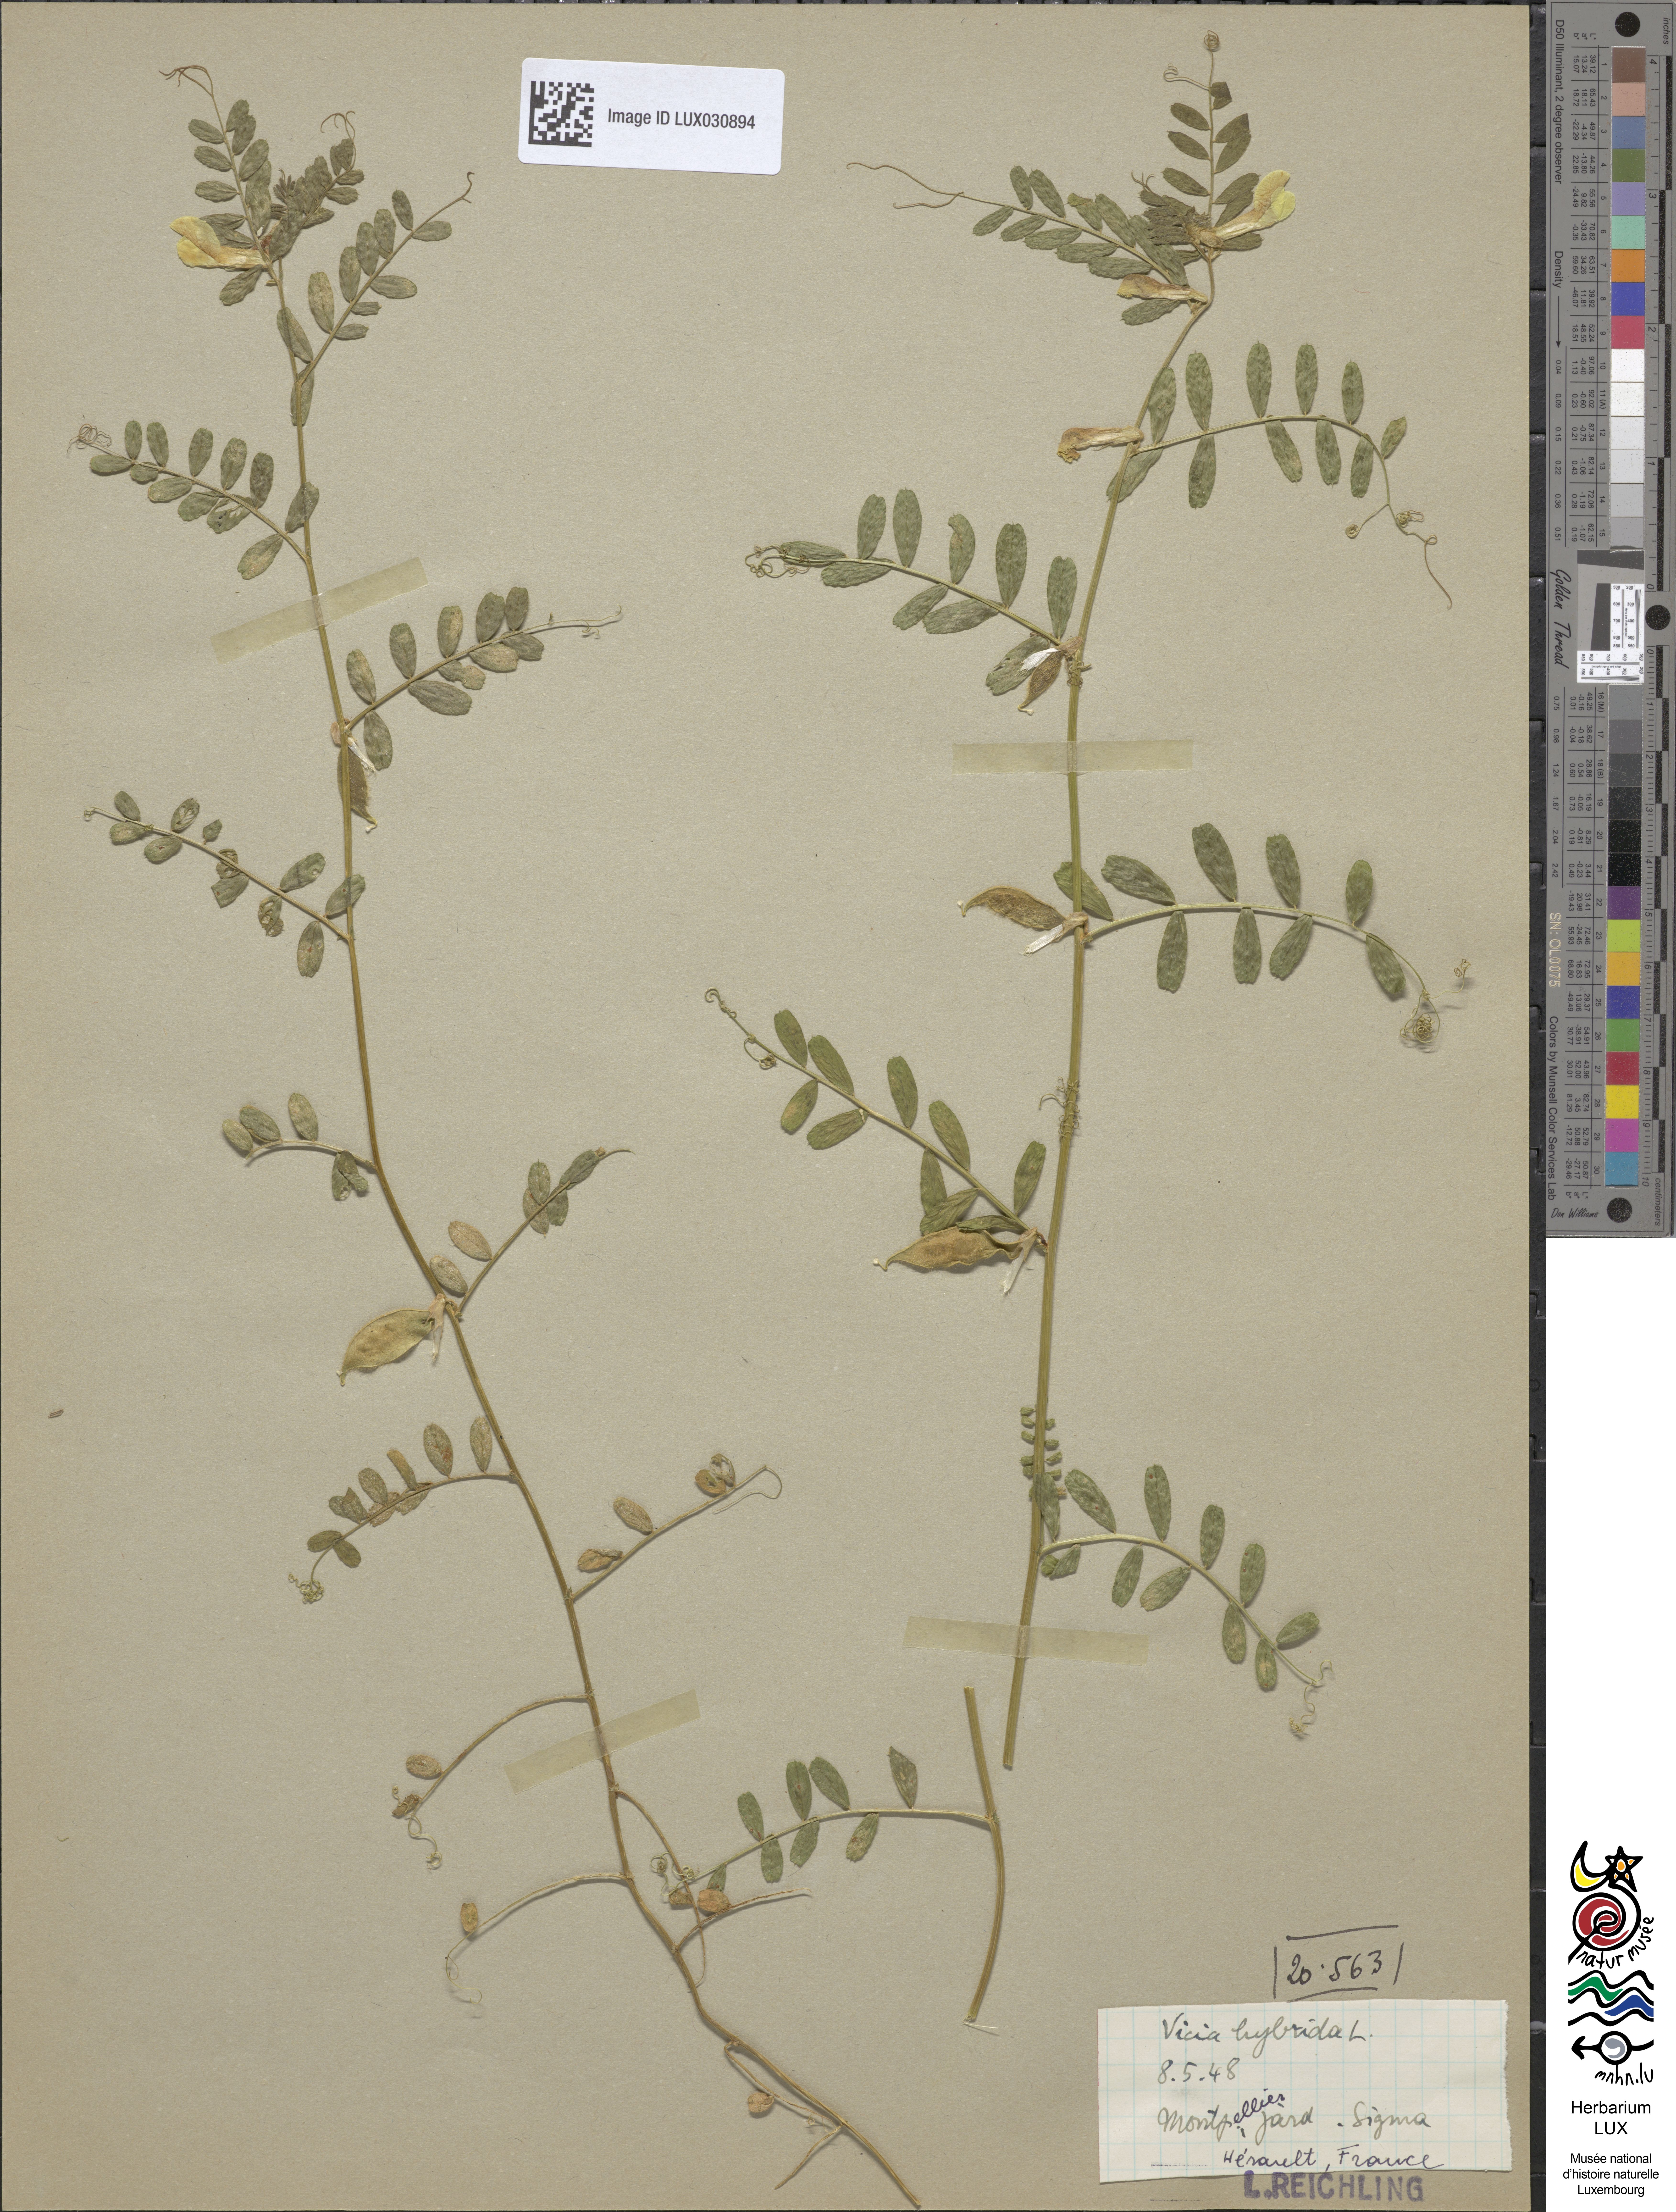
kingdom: Plantae
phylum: Tracheophyta
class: Magnoliopsida
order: Fabales
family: Fabaceae
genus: Vicia
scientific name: Vicia hybrida
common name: Hairy yellow vetch
